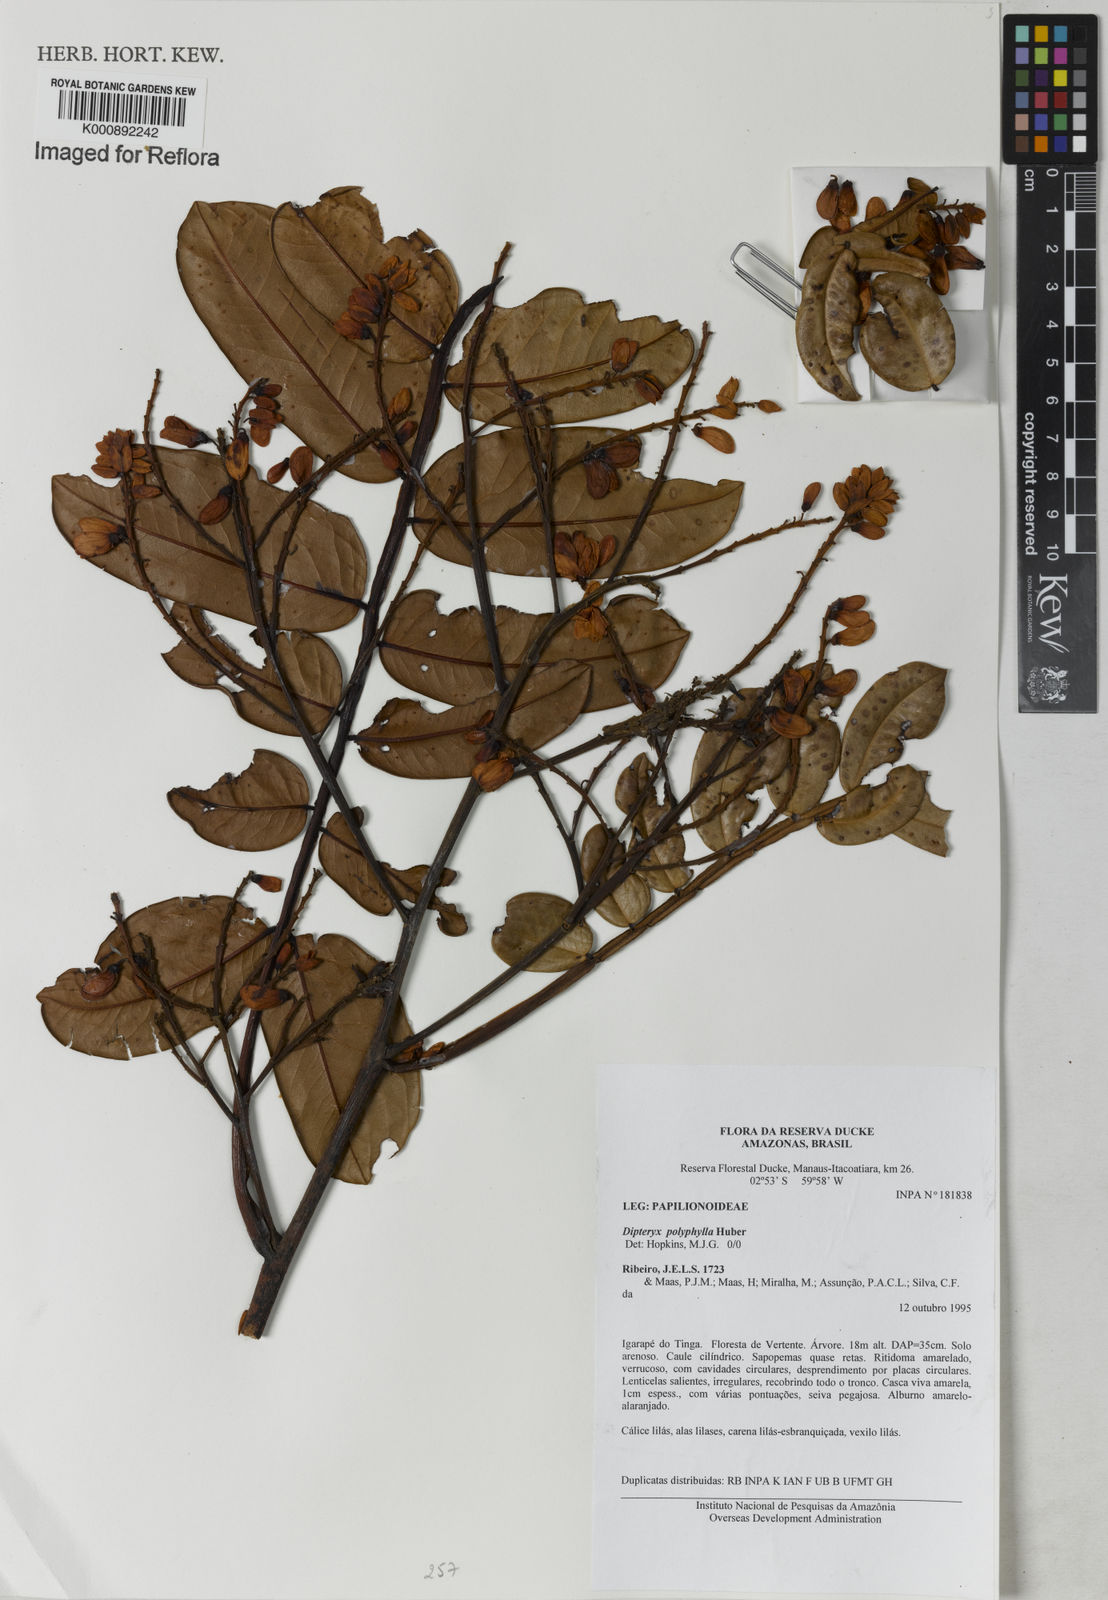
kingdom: Plantae
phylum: Tracheophyta
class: Magnoliopsida
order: Fabales
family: Fabaceae
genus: Dipteryx
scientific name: Dipteryx polyphylla
